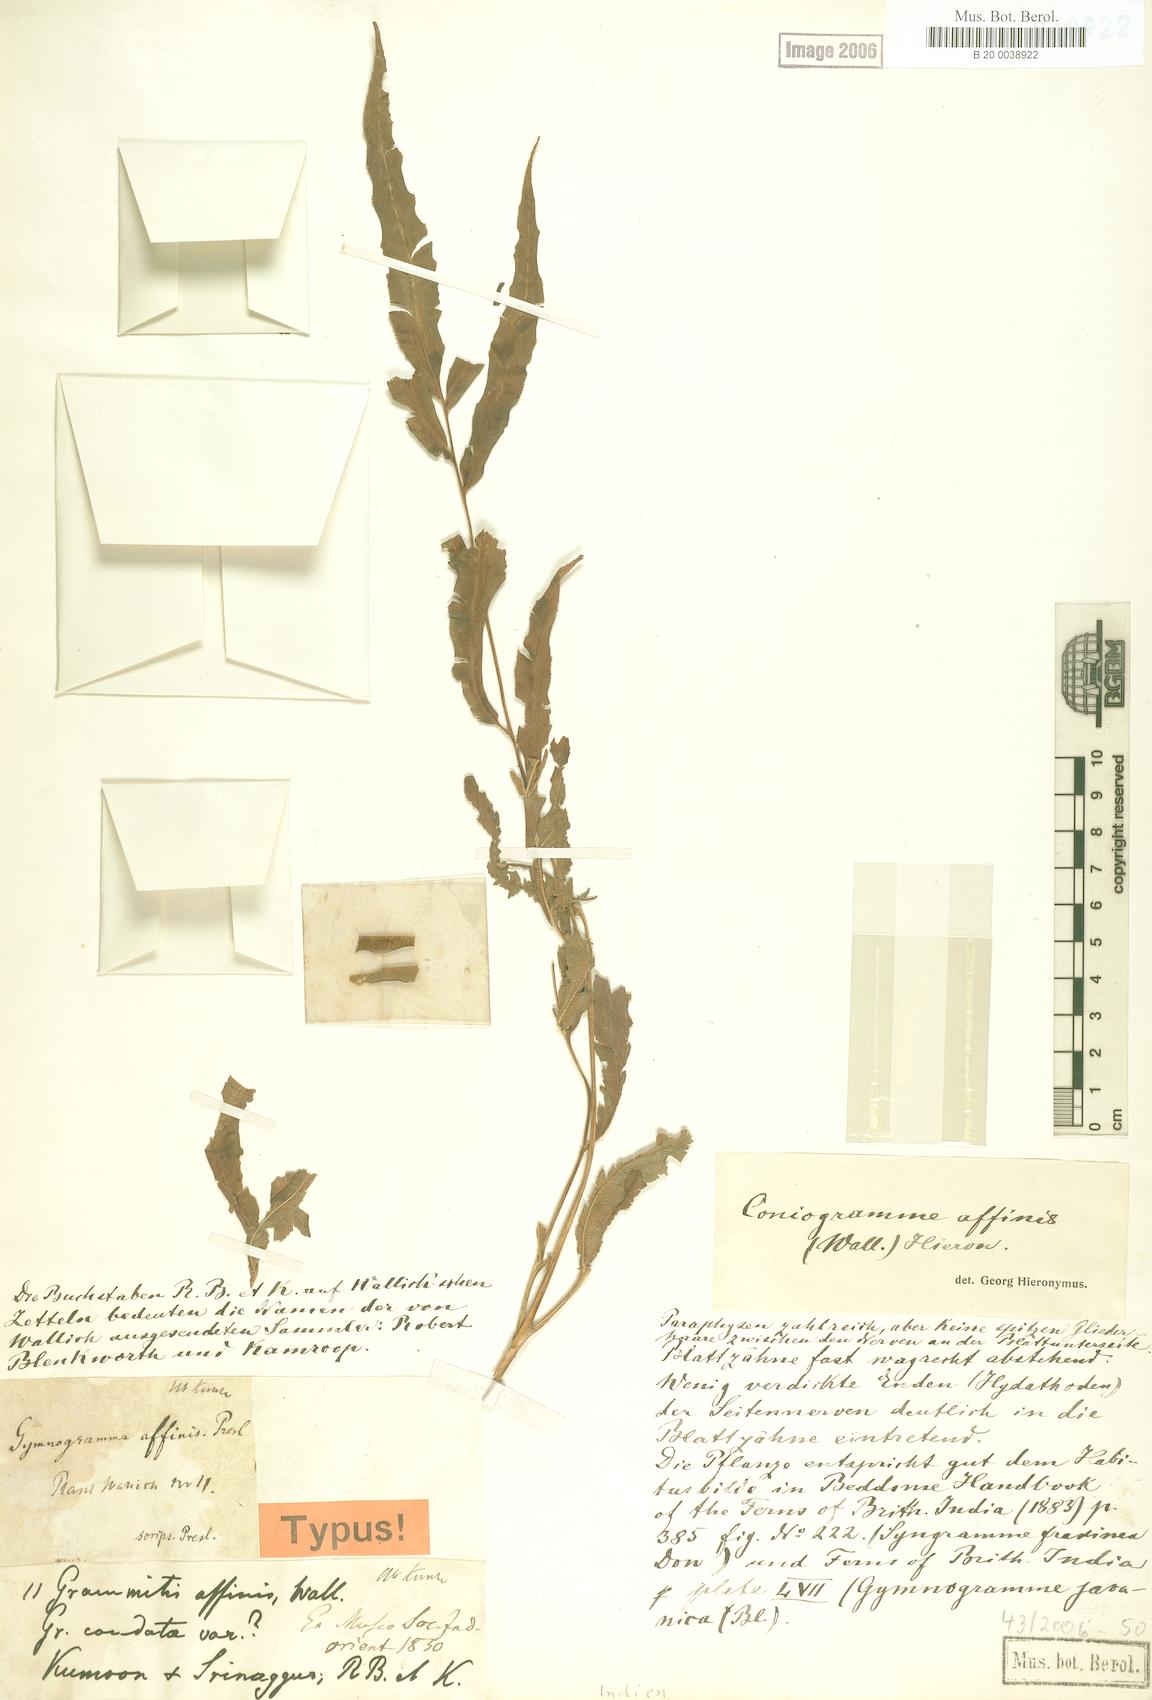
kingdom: Plantae
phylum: Tracheophyta
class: Polypodiopsida
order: Polypodiales
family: Pteridaceae
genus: Coniogramme
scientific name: Coniogramme affinis
